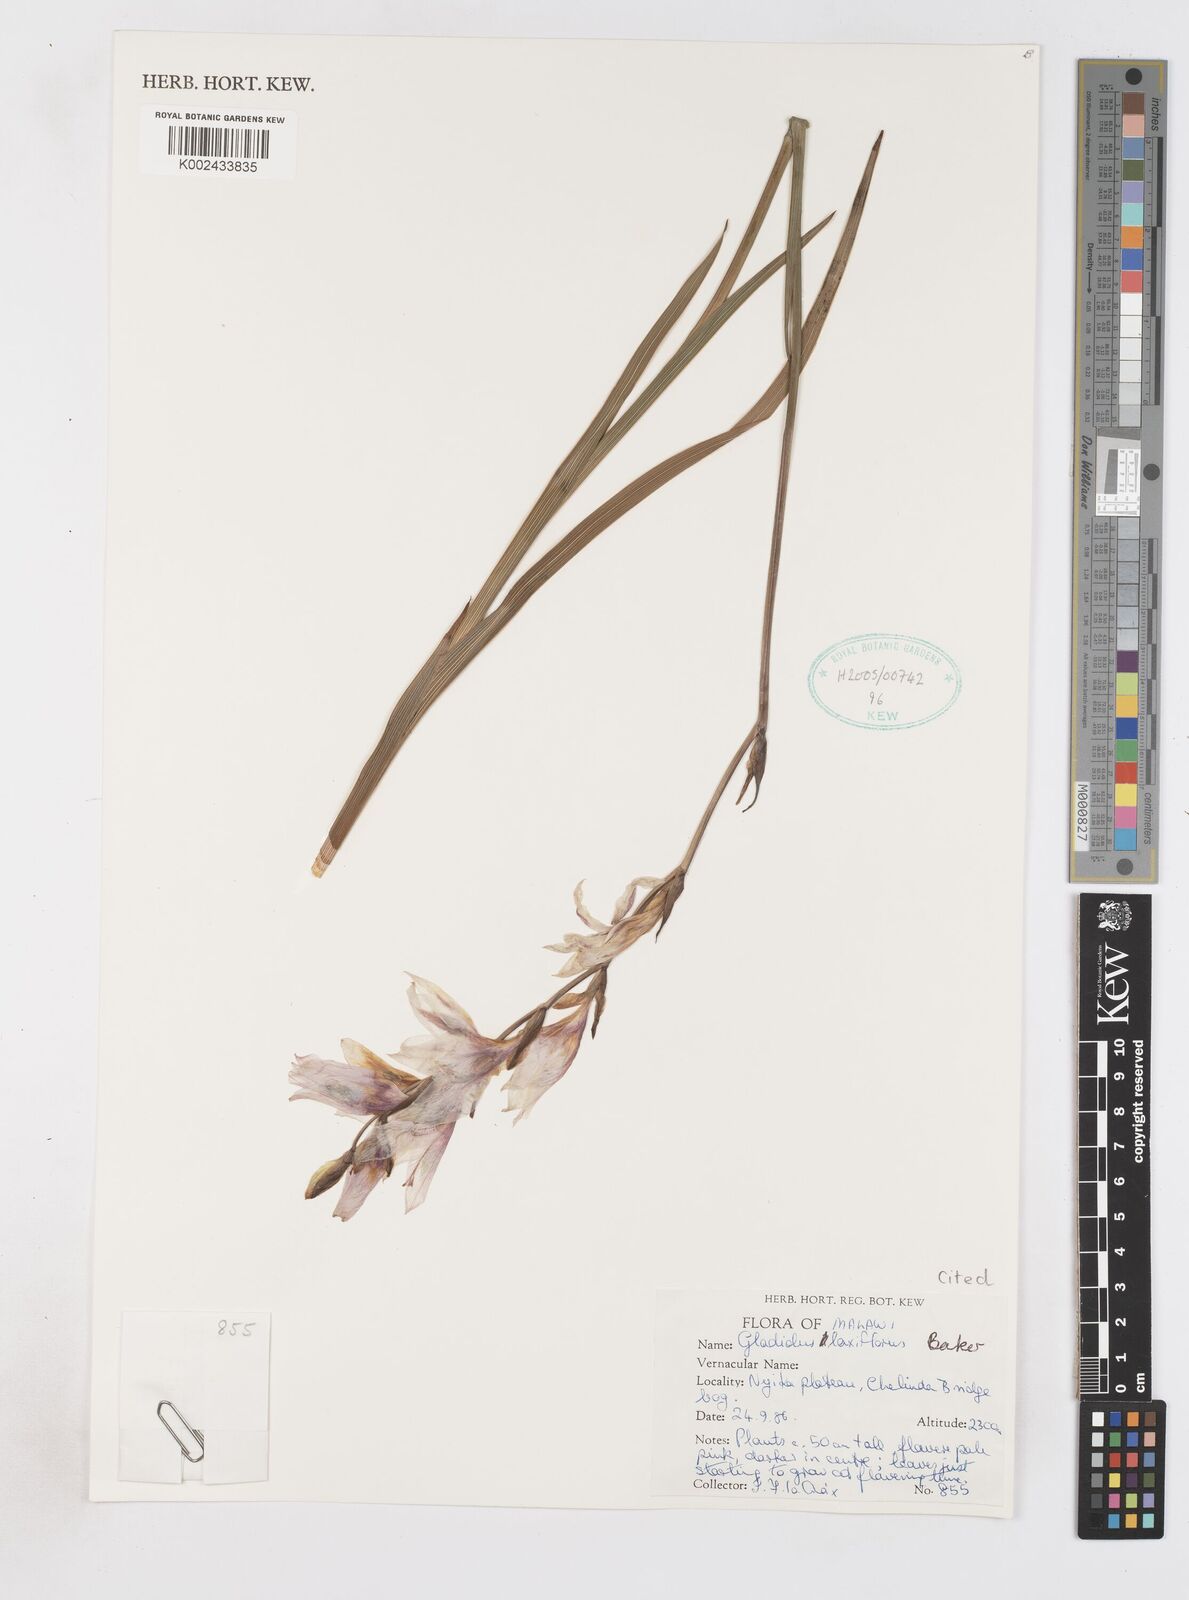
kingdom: Plantae
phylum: Tracheophyta
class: Liliopsida
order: Asparagales
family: Iridaceae
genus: Gladiolus
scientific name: Gladiolus laxiflorus
